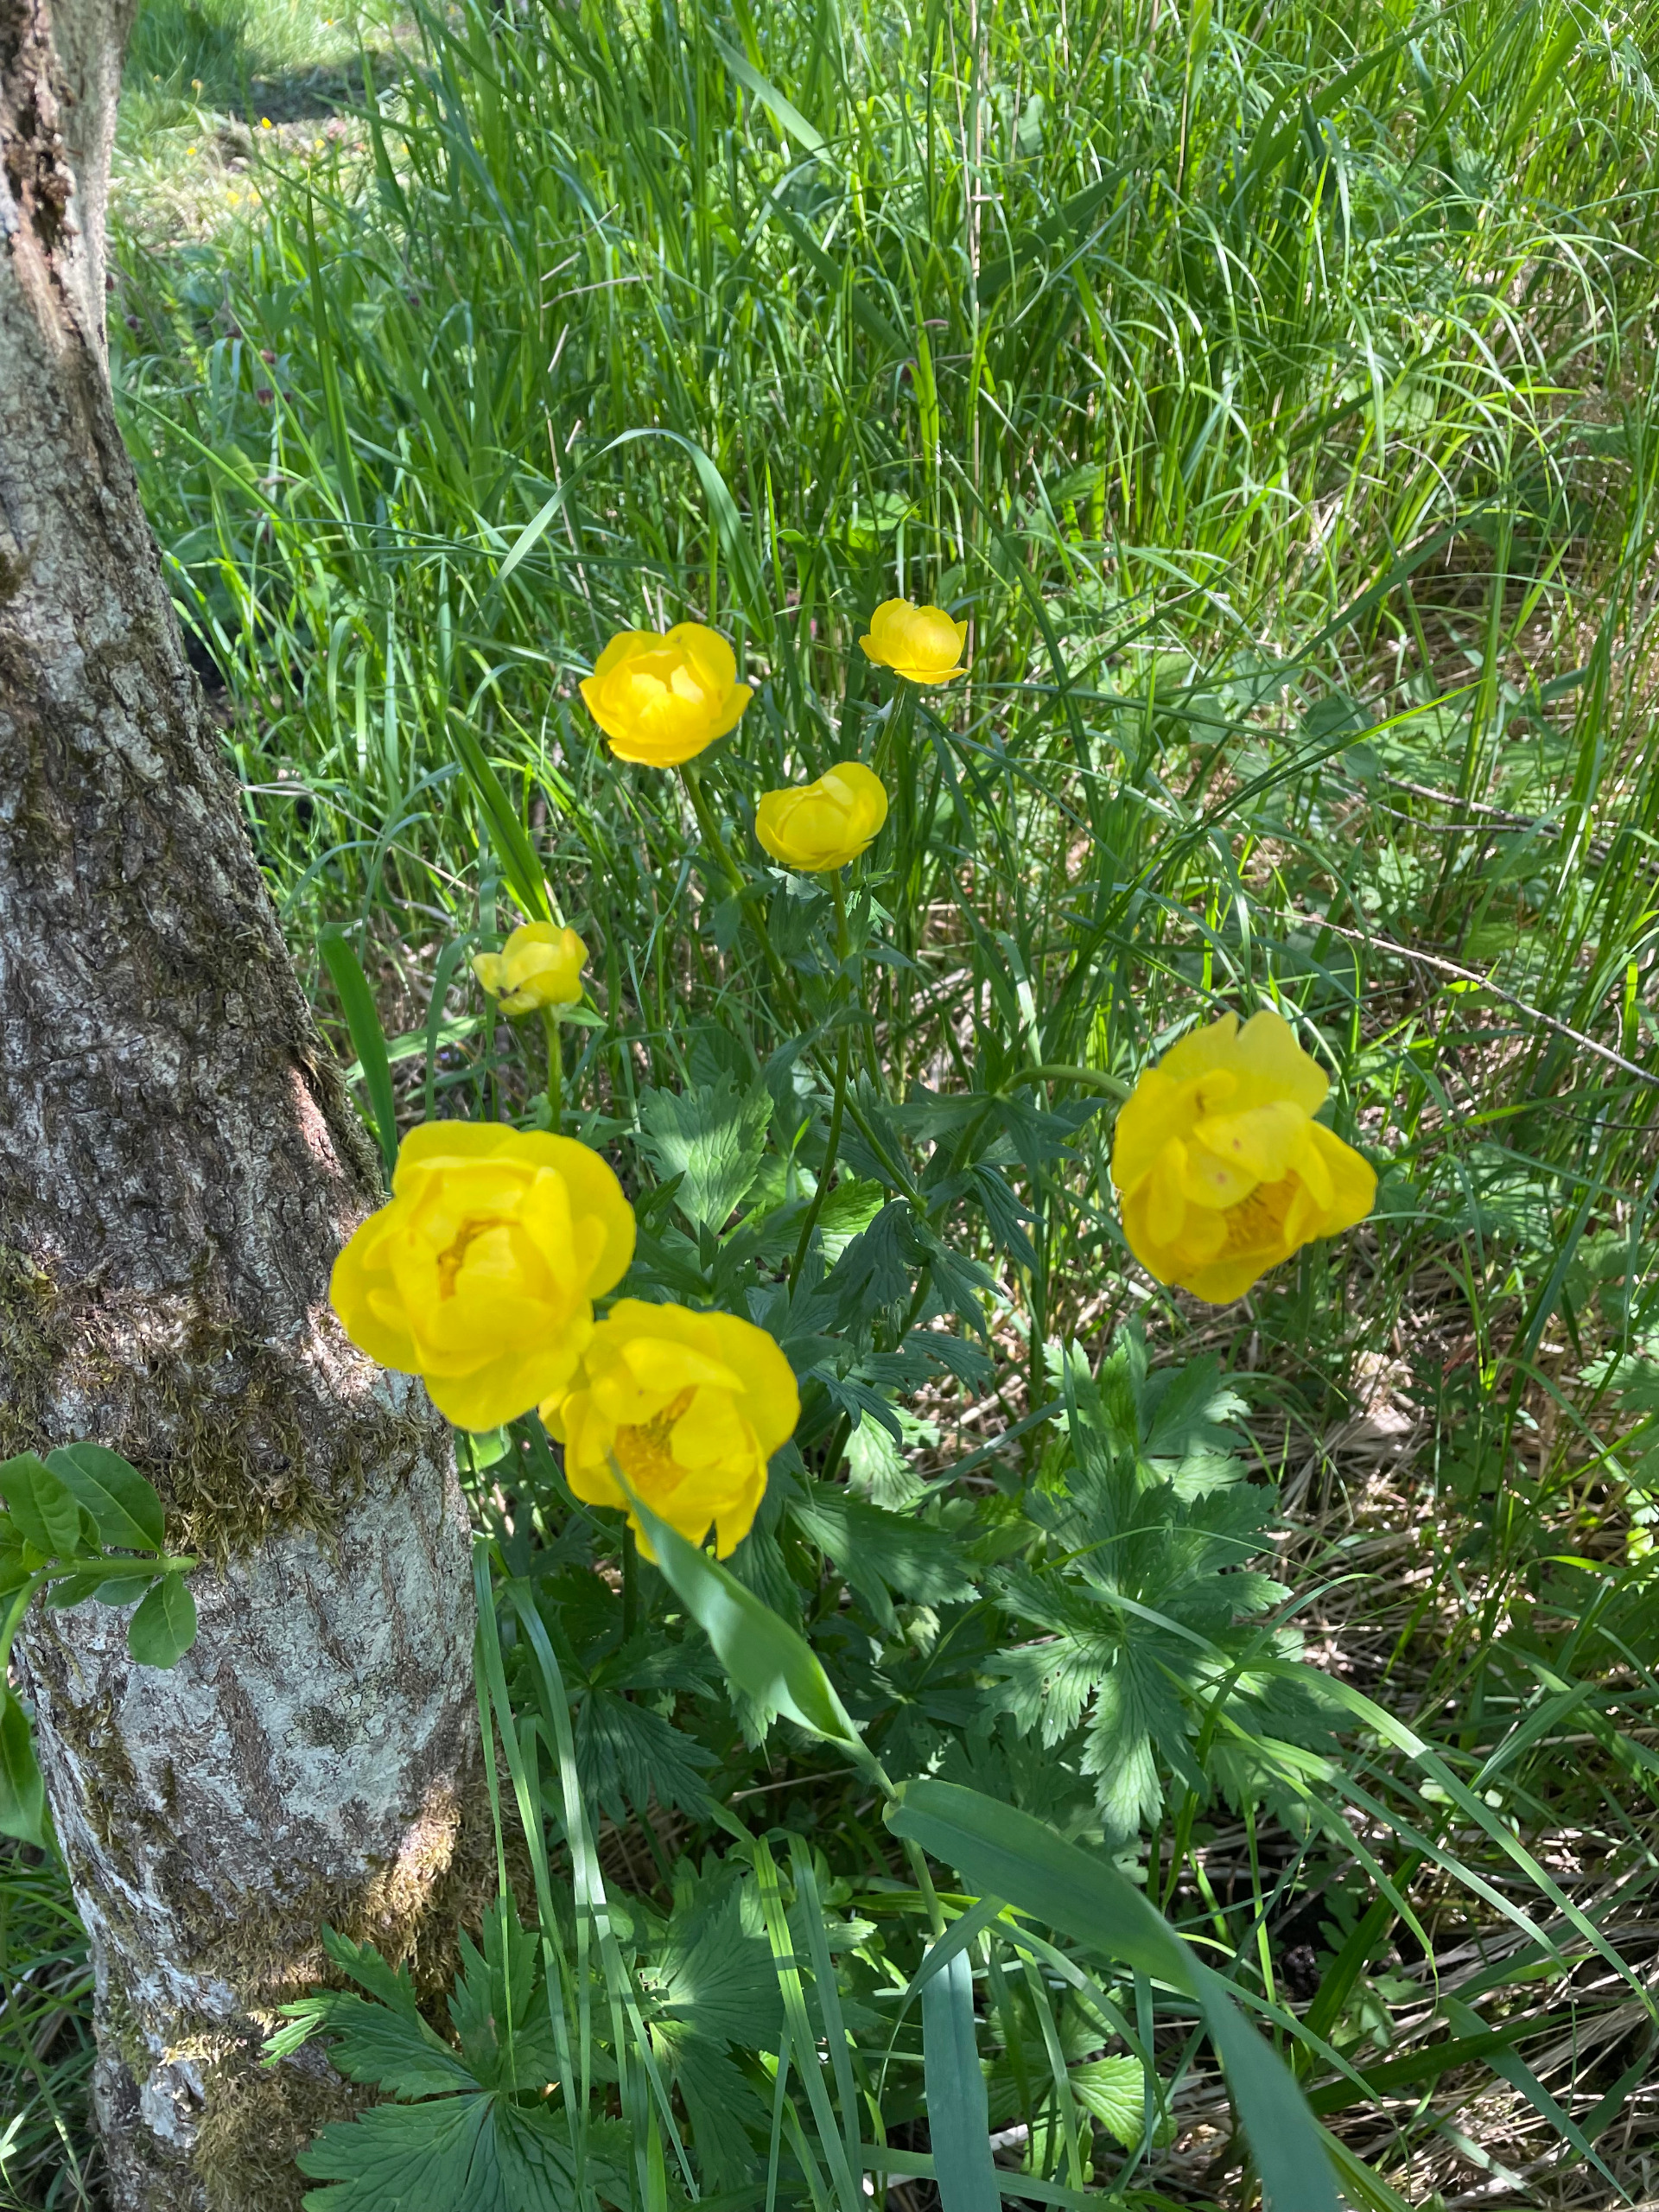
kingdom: Plantae
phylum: Tracheophyta
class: Magnoliopsida
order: Ranunculales
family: Ranunculaceae
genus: Trollius
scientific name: Trollius europaeus
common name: Engblomme
